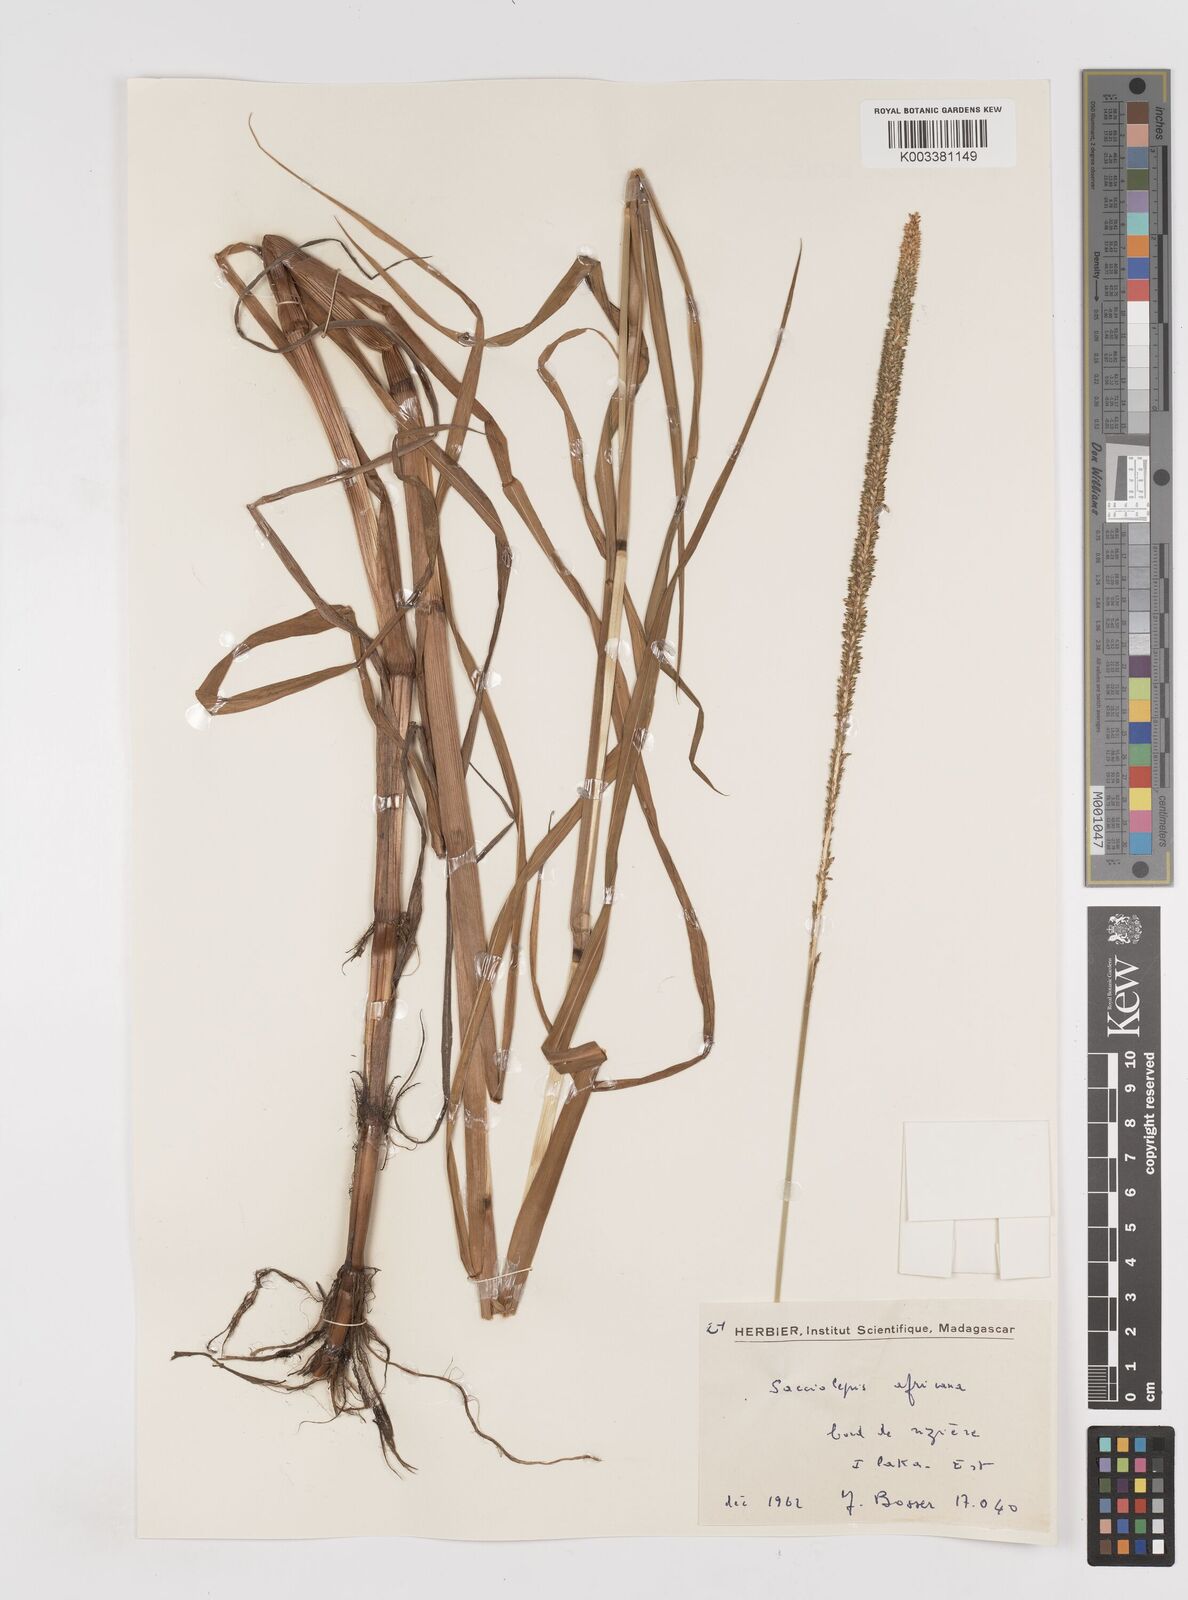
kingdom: Plantae
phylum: Tracheophyta
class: Liliopsida
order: Poales
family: Poaceae
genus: Sacciolepis
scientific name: Sacciolepis africana
